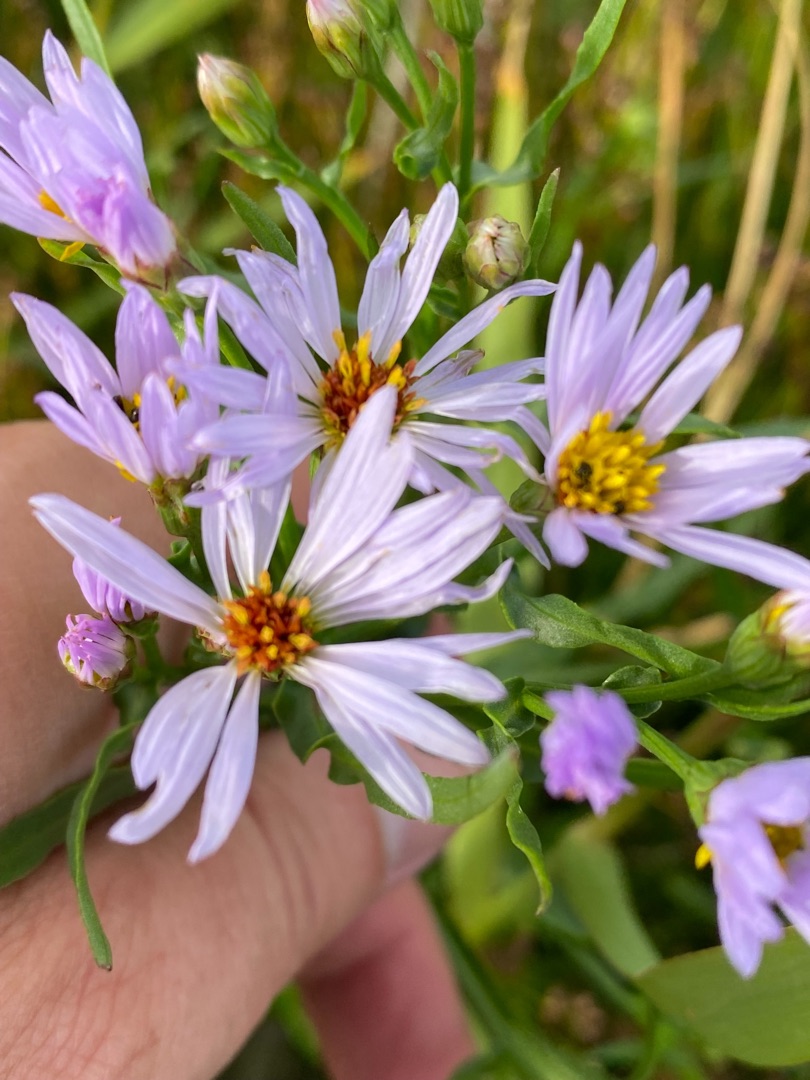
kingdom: Plantae
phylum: Tracheophyta
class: Magnoliopsida
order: Asterales
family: Asteraceae
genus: Tripolium
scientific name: Tripolium pannonicum
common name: Strandasters
